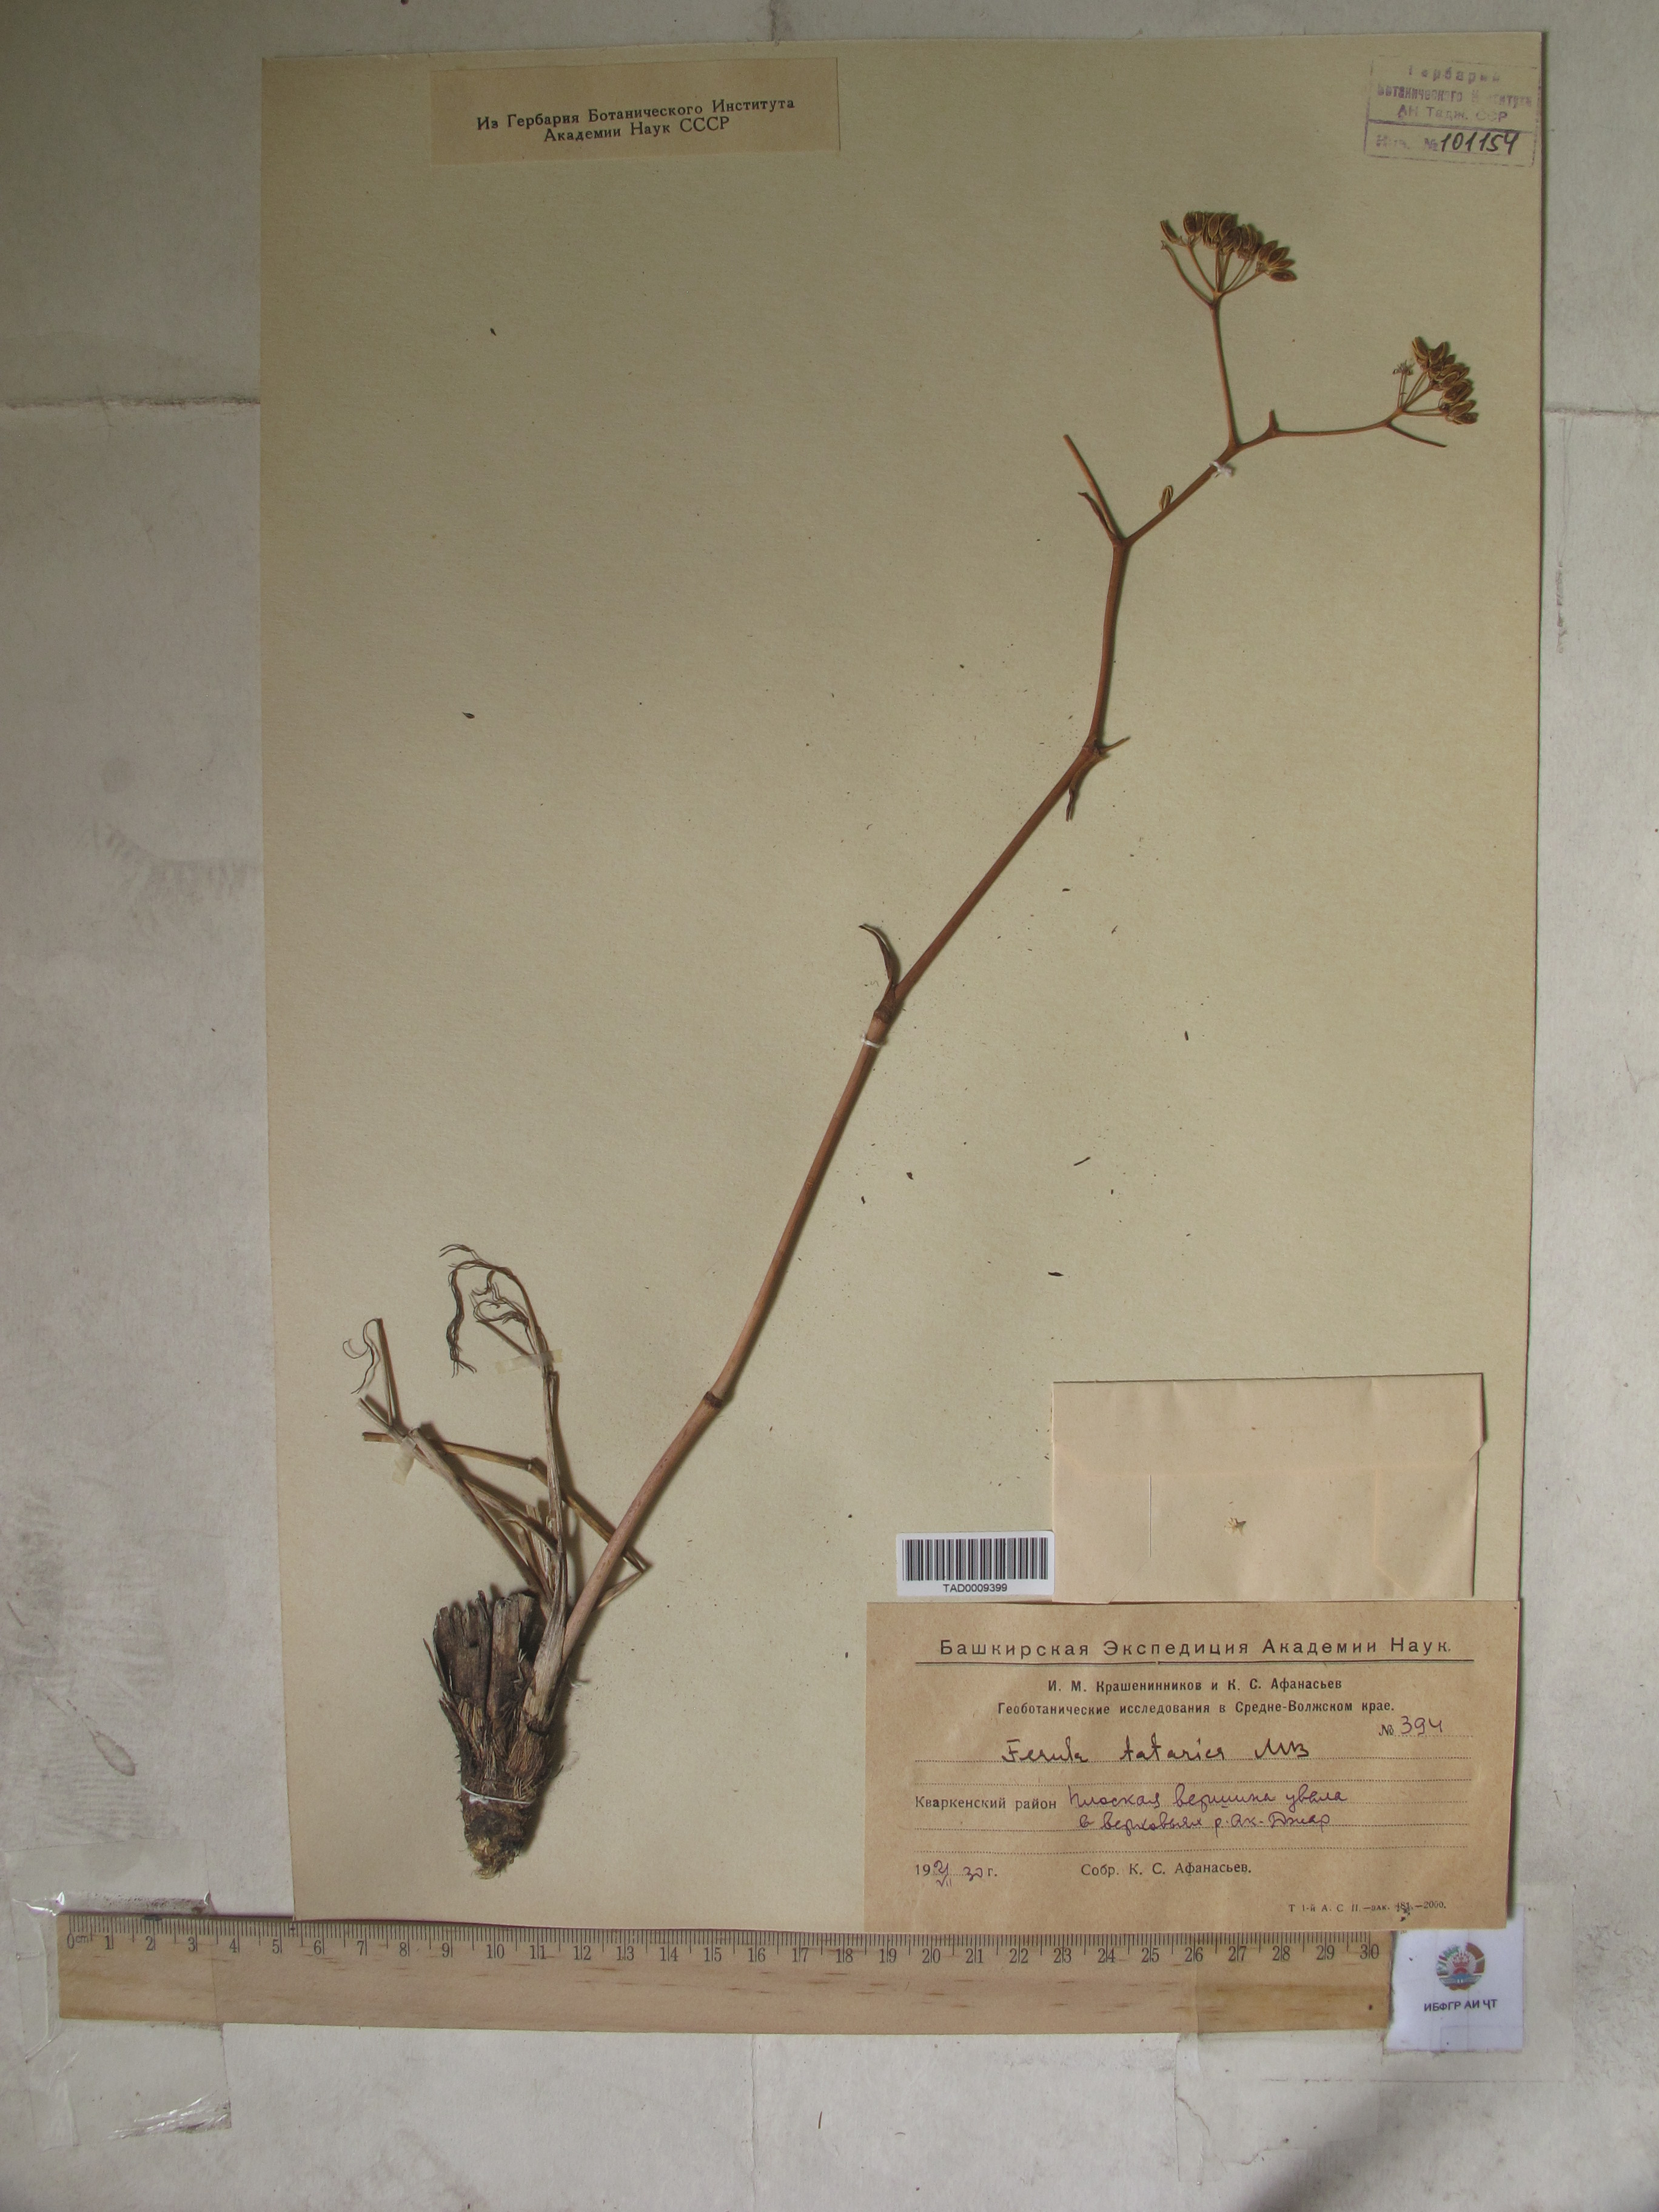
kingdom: Plantae
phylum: Tracheophyta
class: Magnoliopsida
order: Apiales
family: Apiaceae
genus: Ferula
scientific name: Ferula tatarica
